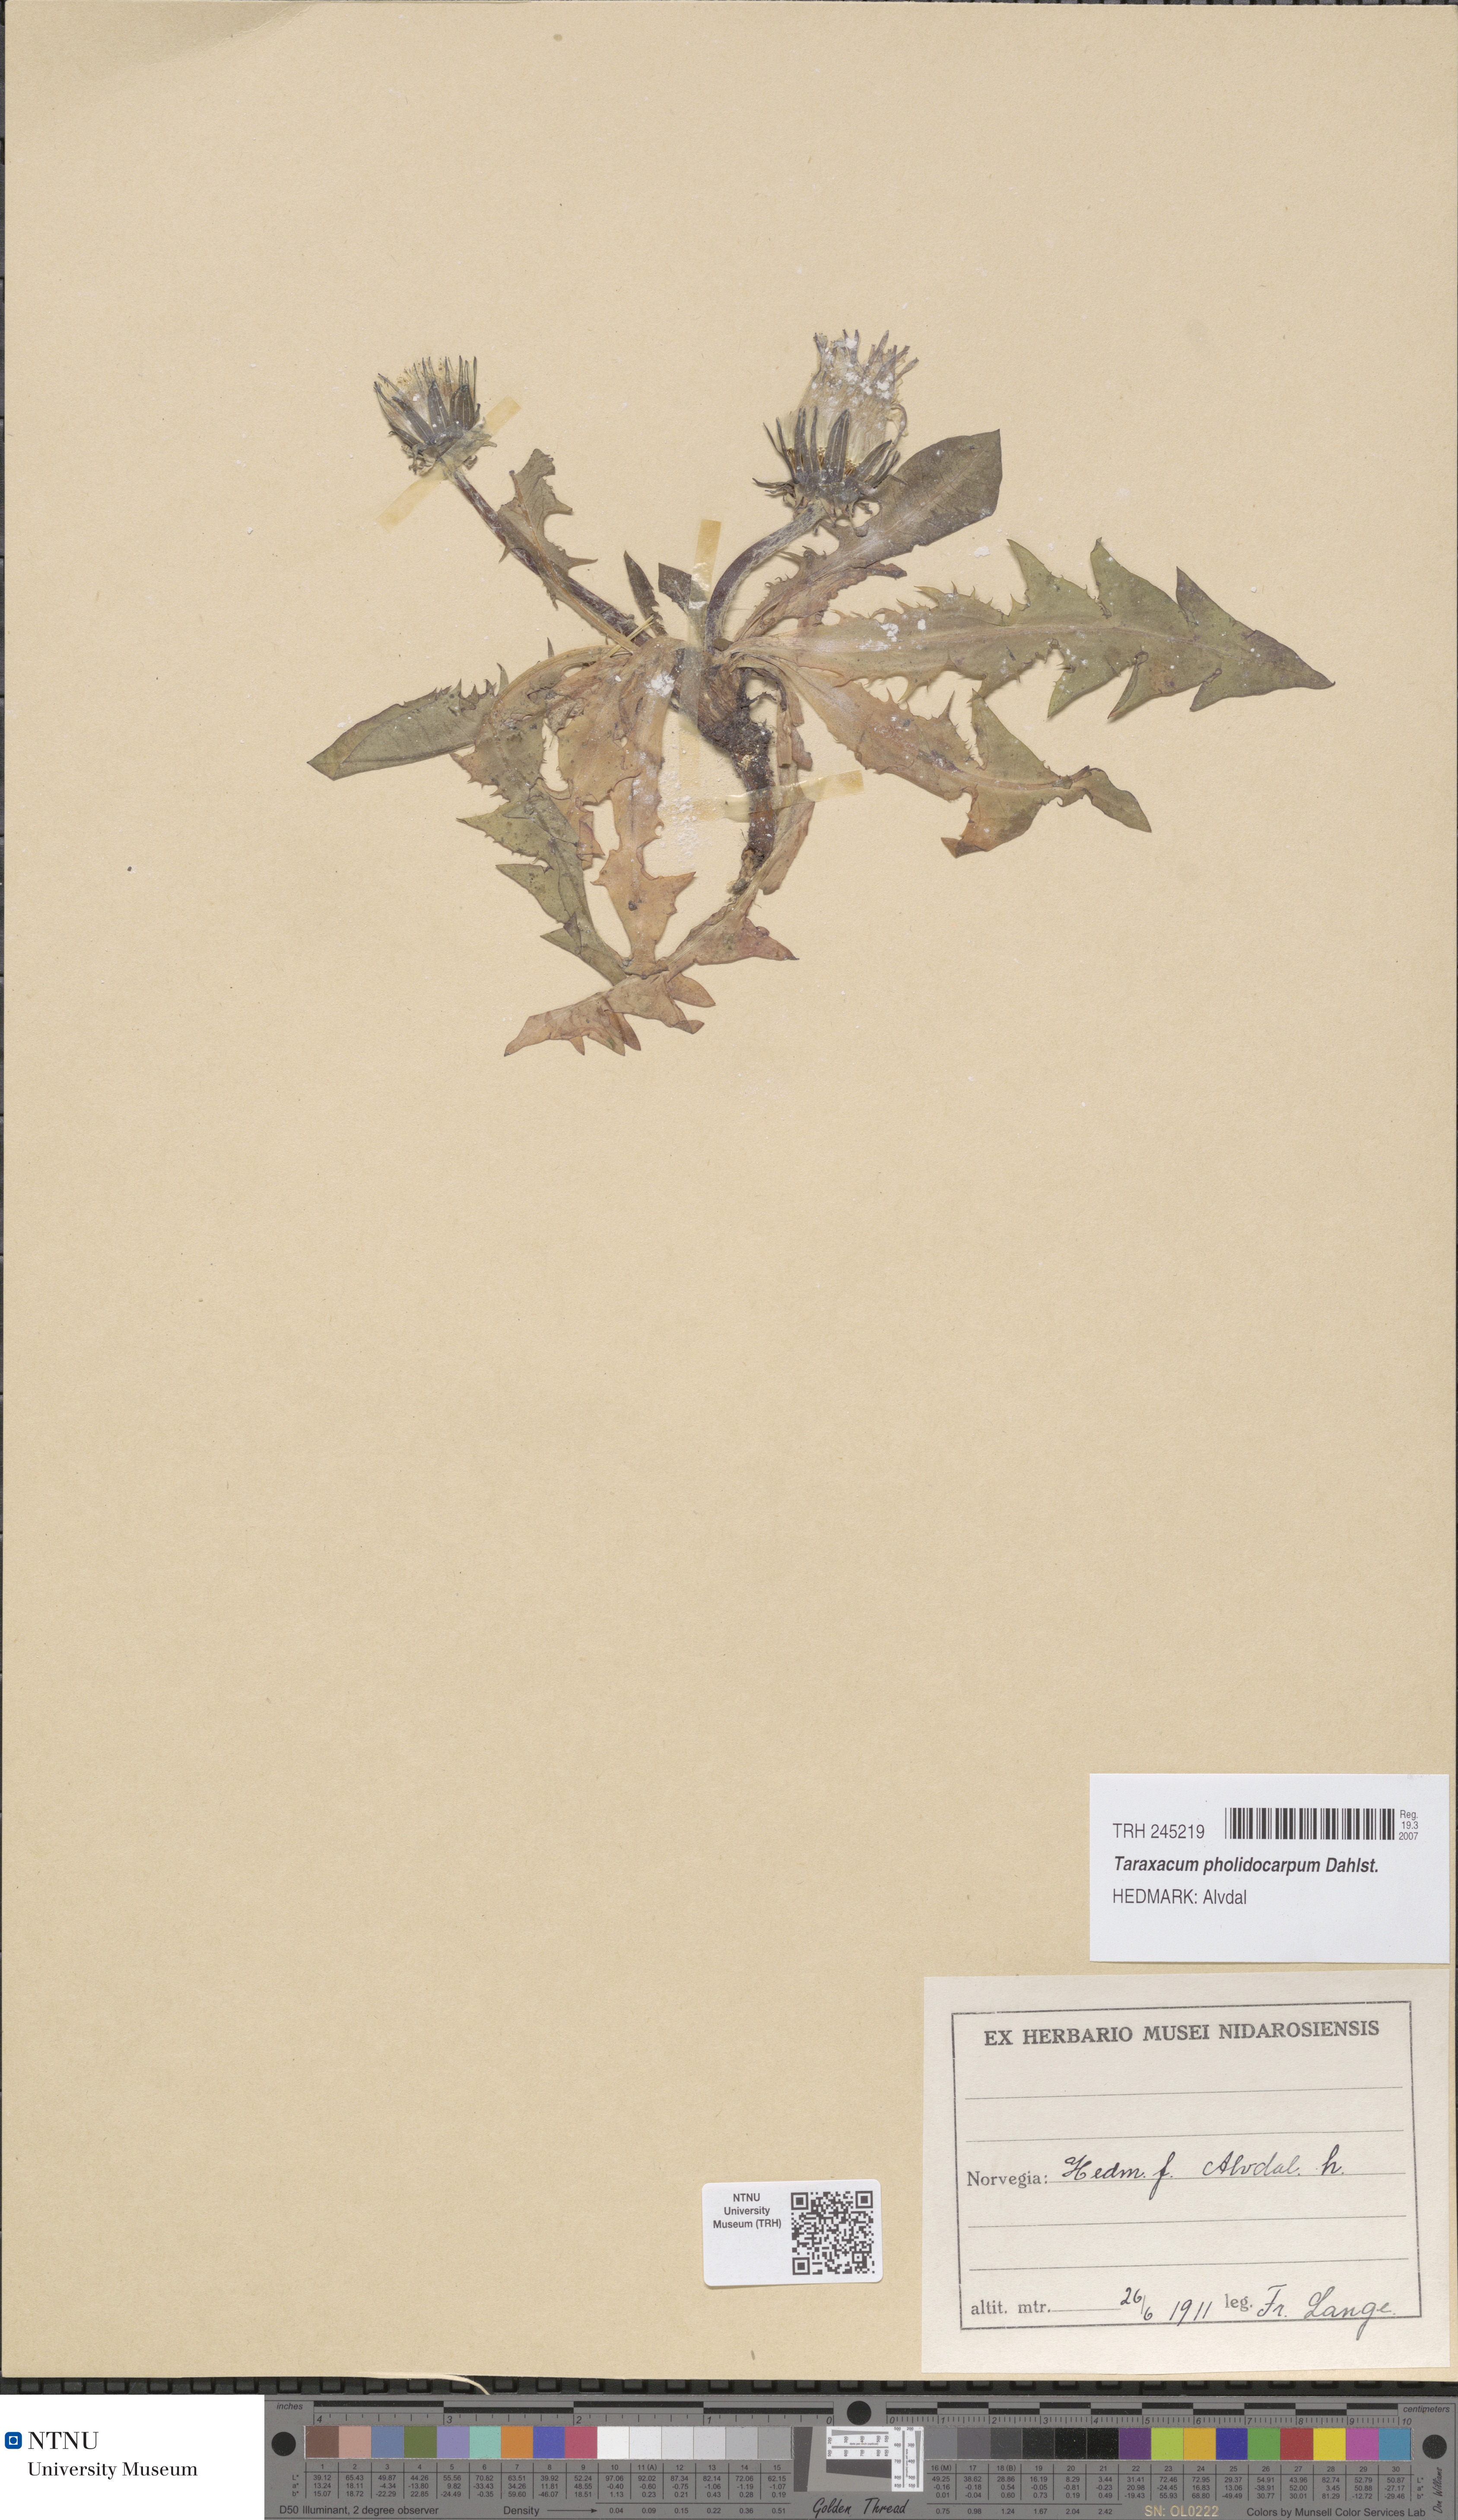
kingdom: Plantae
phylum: Tracheophyta
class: Magnoliopsida
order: Asterales
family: Asteraceae
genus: Taraxacum
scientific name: Taraxacum pholidocarpum
